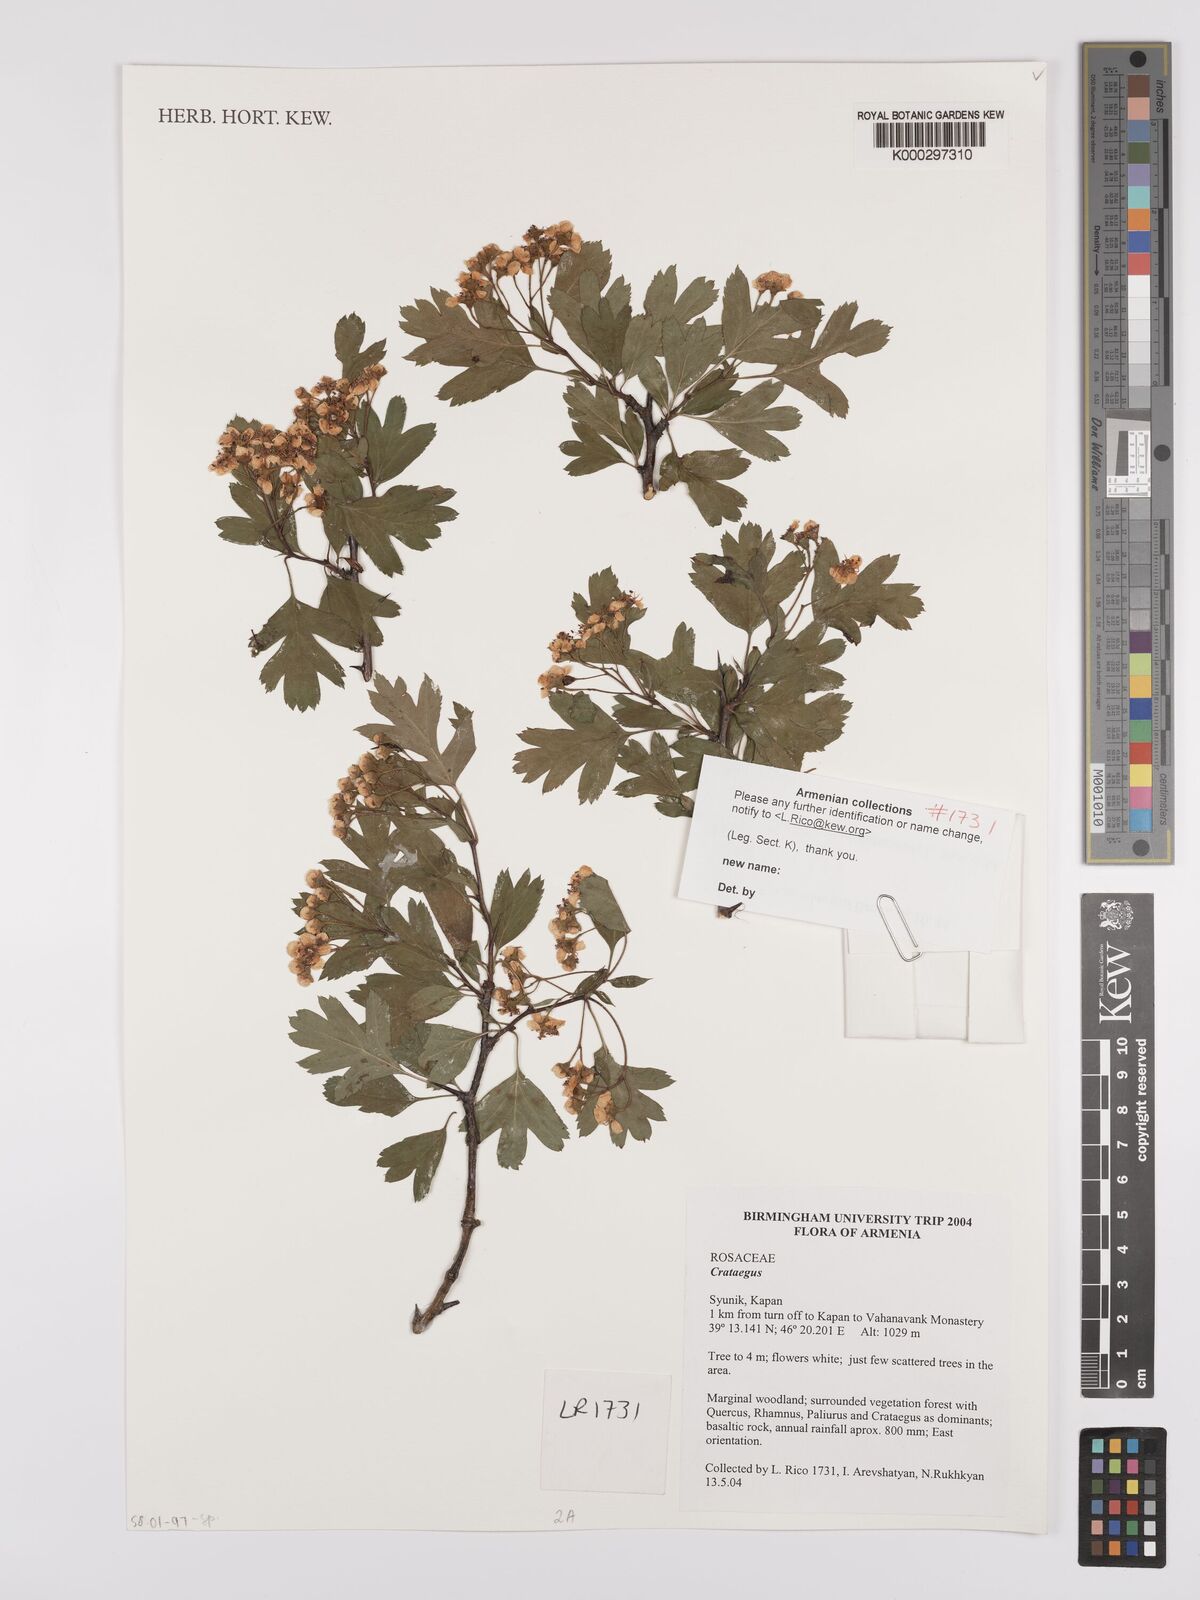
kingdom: Plantae
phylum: Tracheophyta
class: Magnoliopsida
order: Rosales
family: Rosaceae
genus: Crataegus
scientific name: Crataegus
